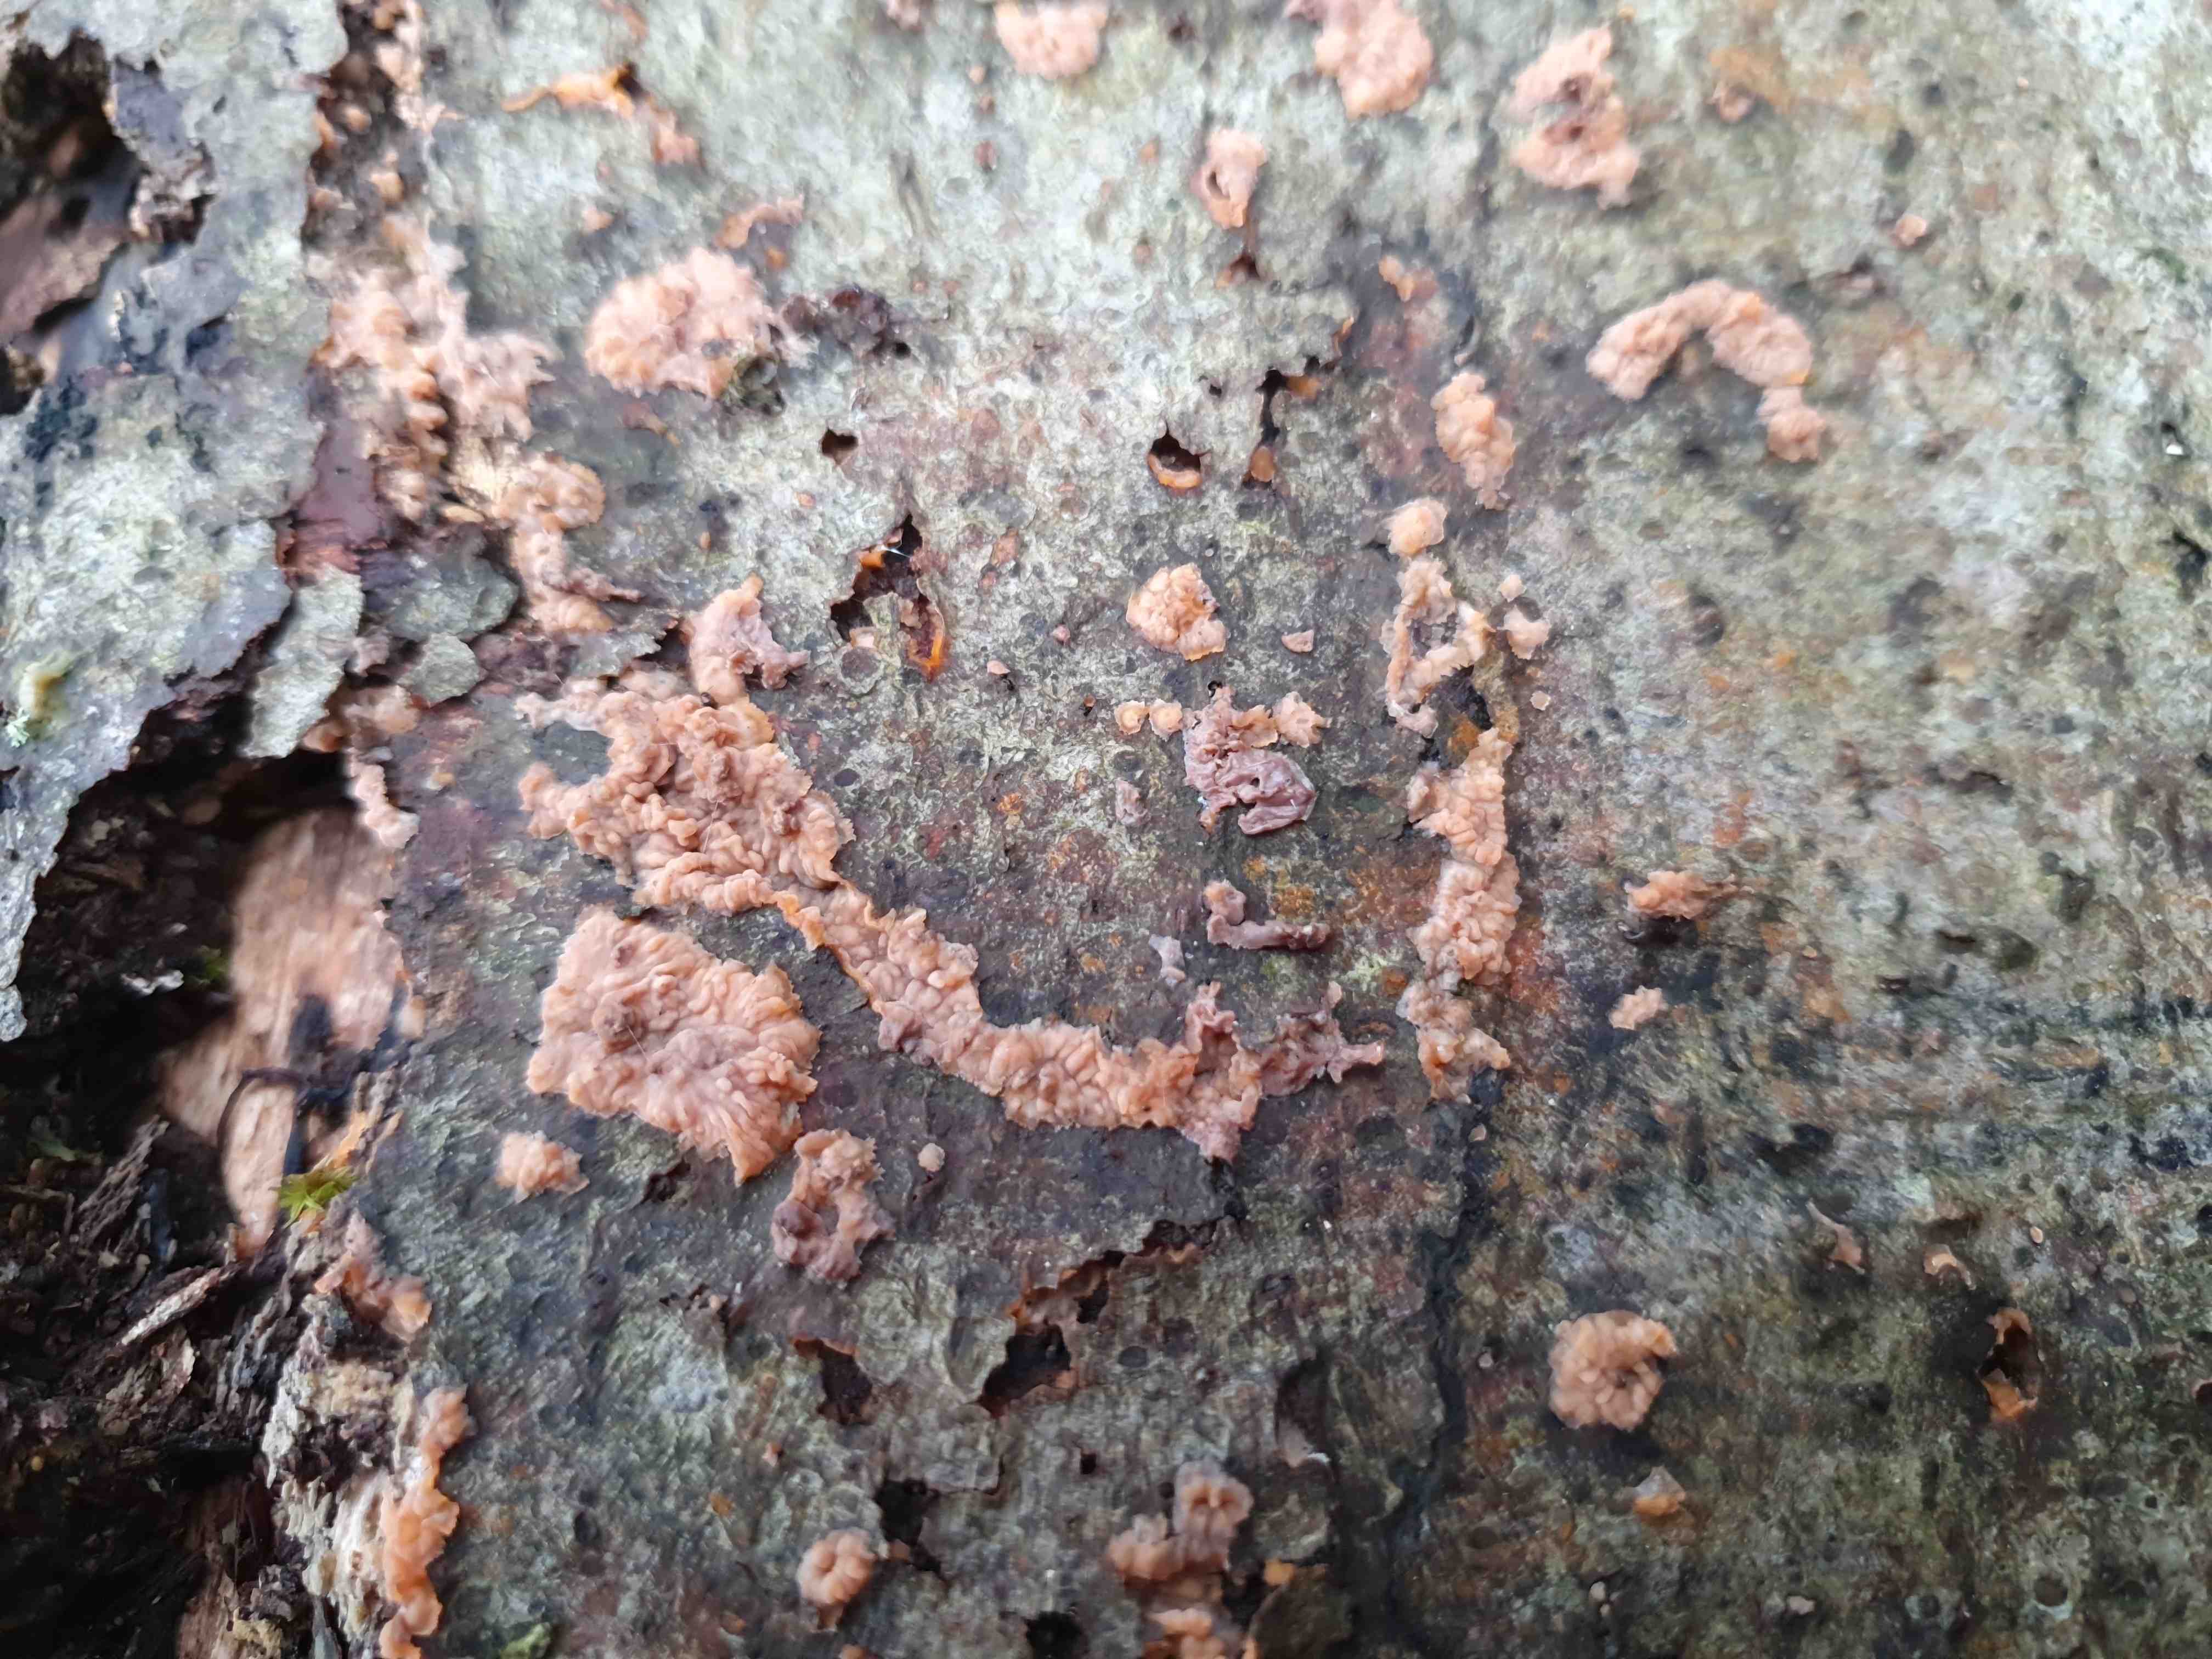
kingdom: Fungi
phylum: Basidiomycota
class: Agaricomycetes
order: Polyporales
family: Meruliaceae
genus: Phlebia
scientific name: Phlebia radiata
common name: stråle-åresvamp
